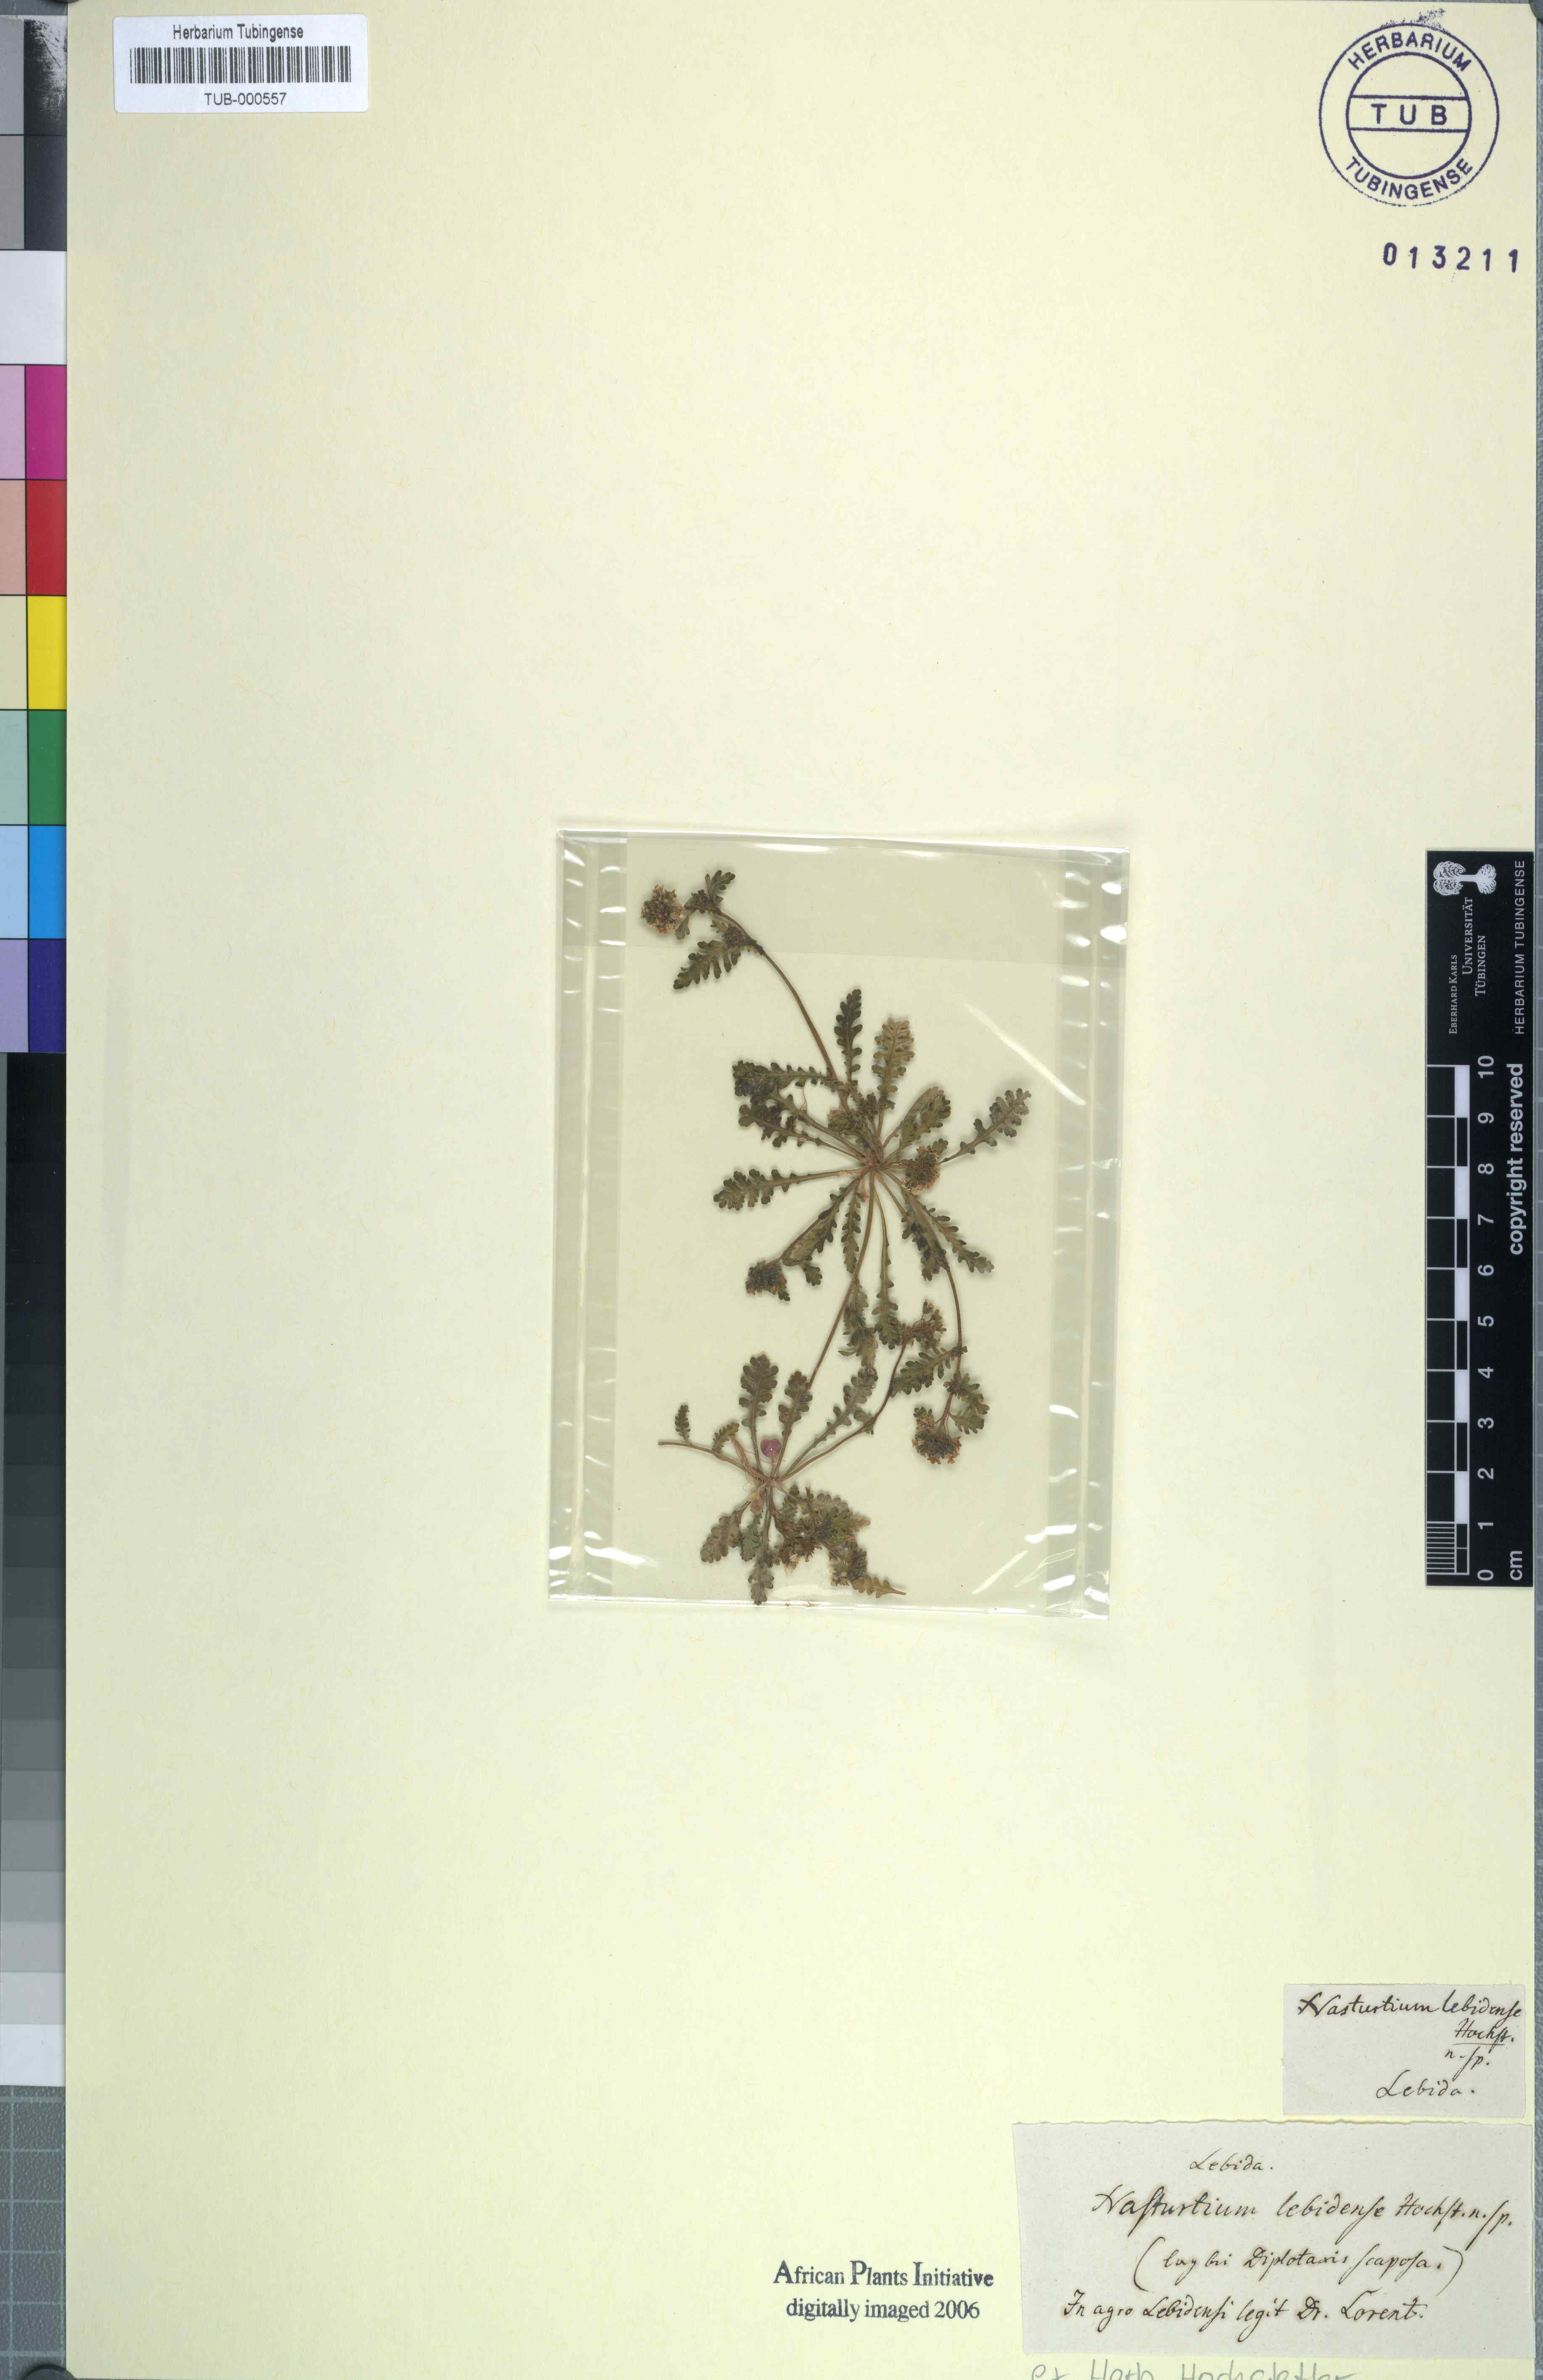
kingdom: Plantae
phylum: Tracheophyta
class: Magnoliopsida
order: Brassicales
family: Brassicaceae
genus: Nasturtium
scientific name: Nasturtium
